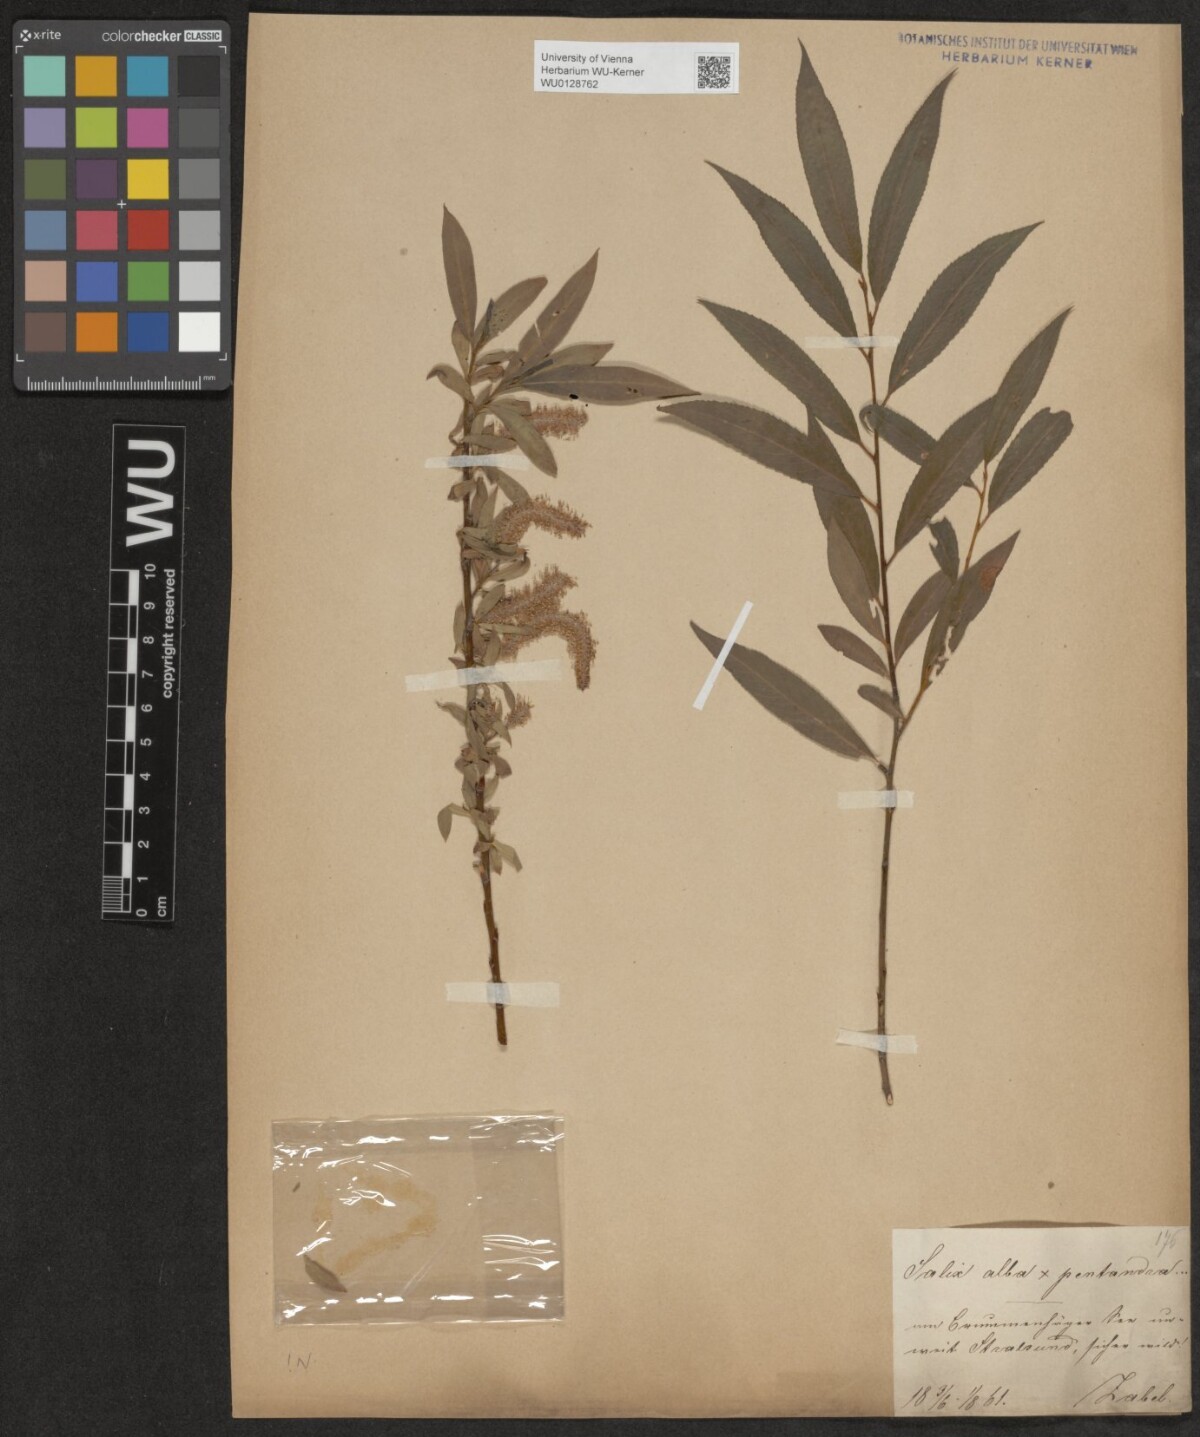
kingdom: Plantae
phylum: Tracheophyta
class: Magnoliopsida
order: Malpighiales
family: Salicaceae
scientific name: Salicaceae
